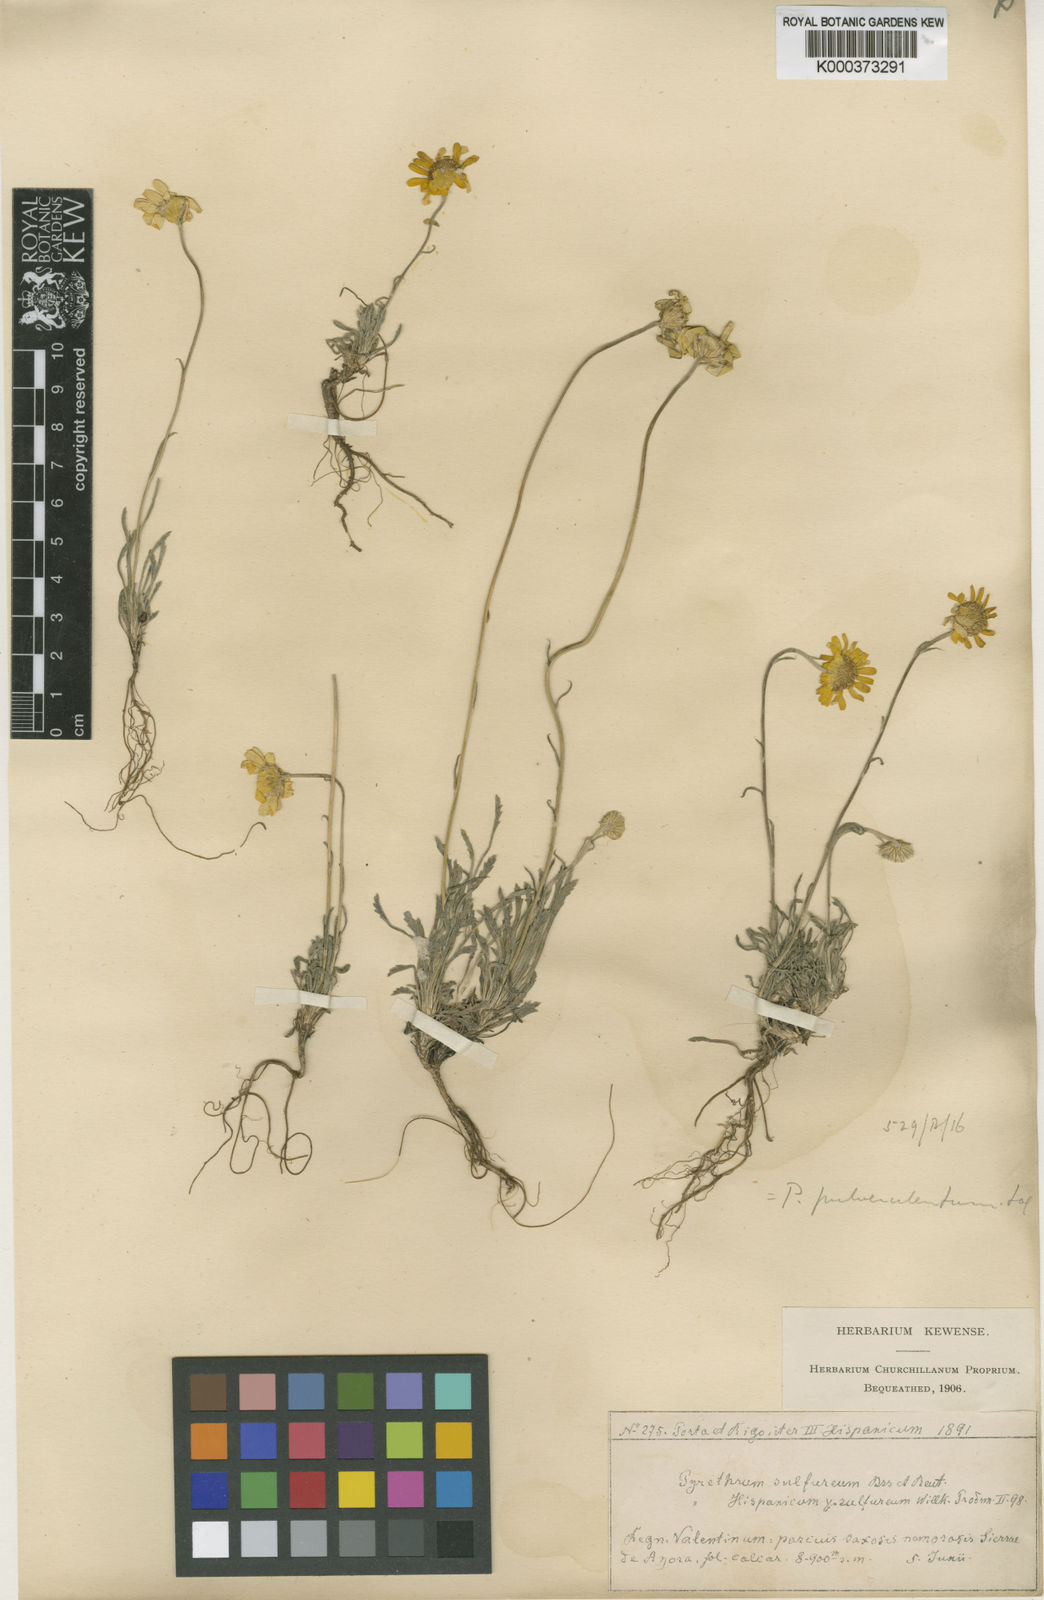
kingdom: Plantae
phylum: Tracheophyta
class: Magnoliopsida
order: Asterales
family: Asteraceae
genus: Leucanthemopsis
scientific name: Leucanthemopsis pallida
